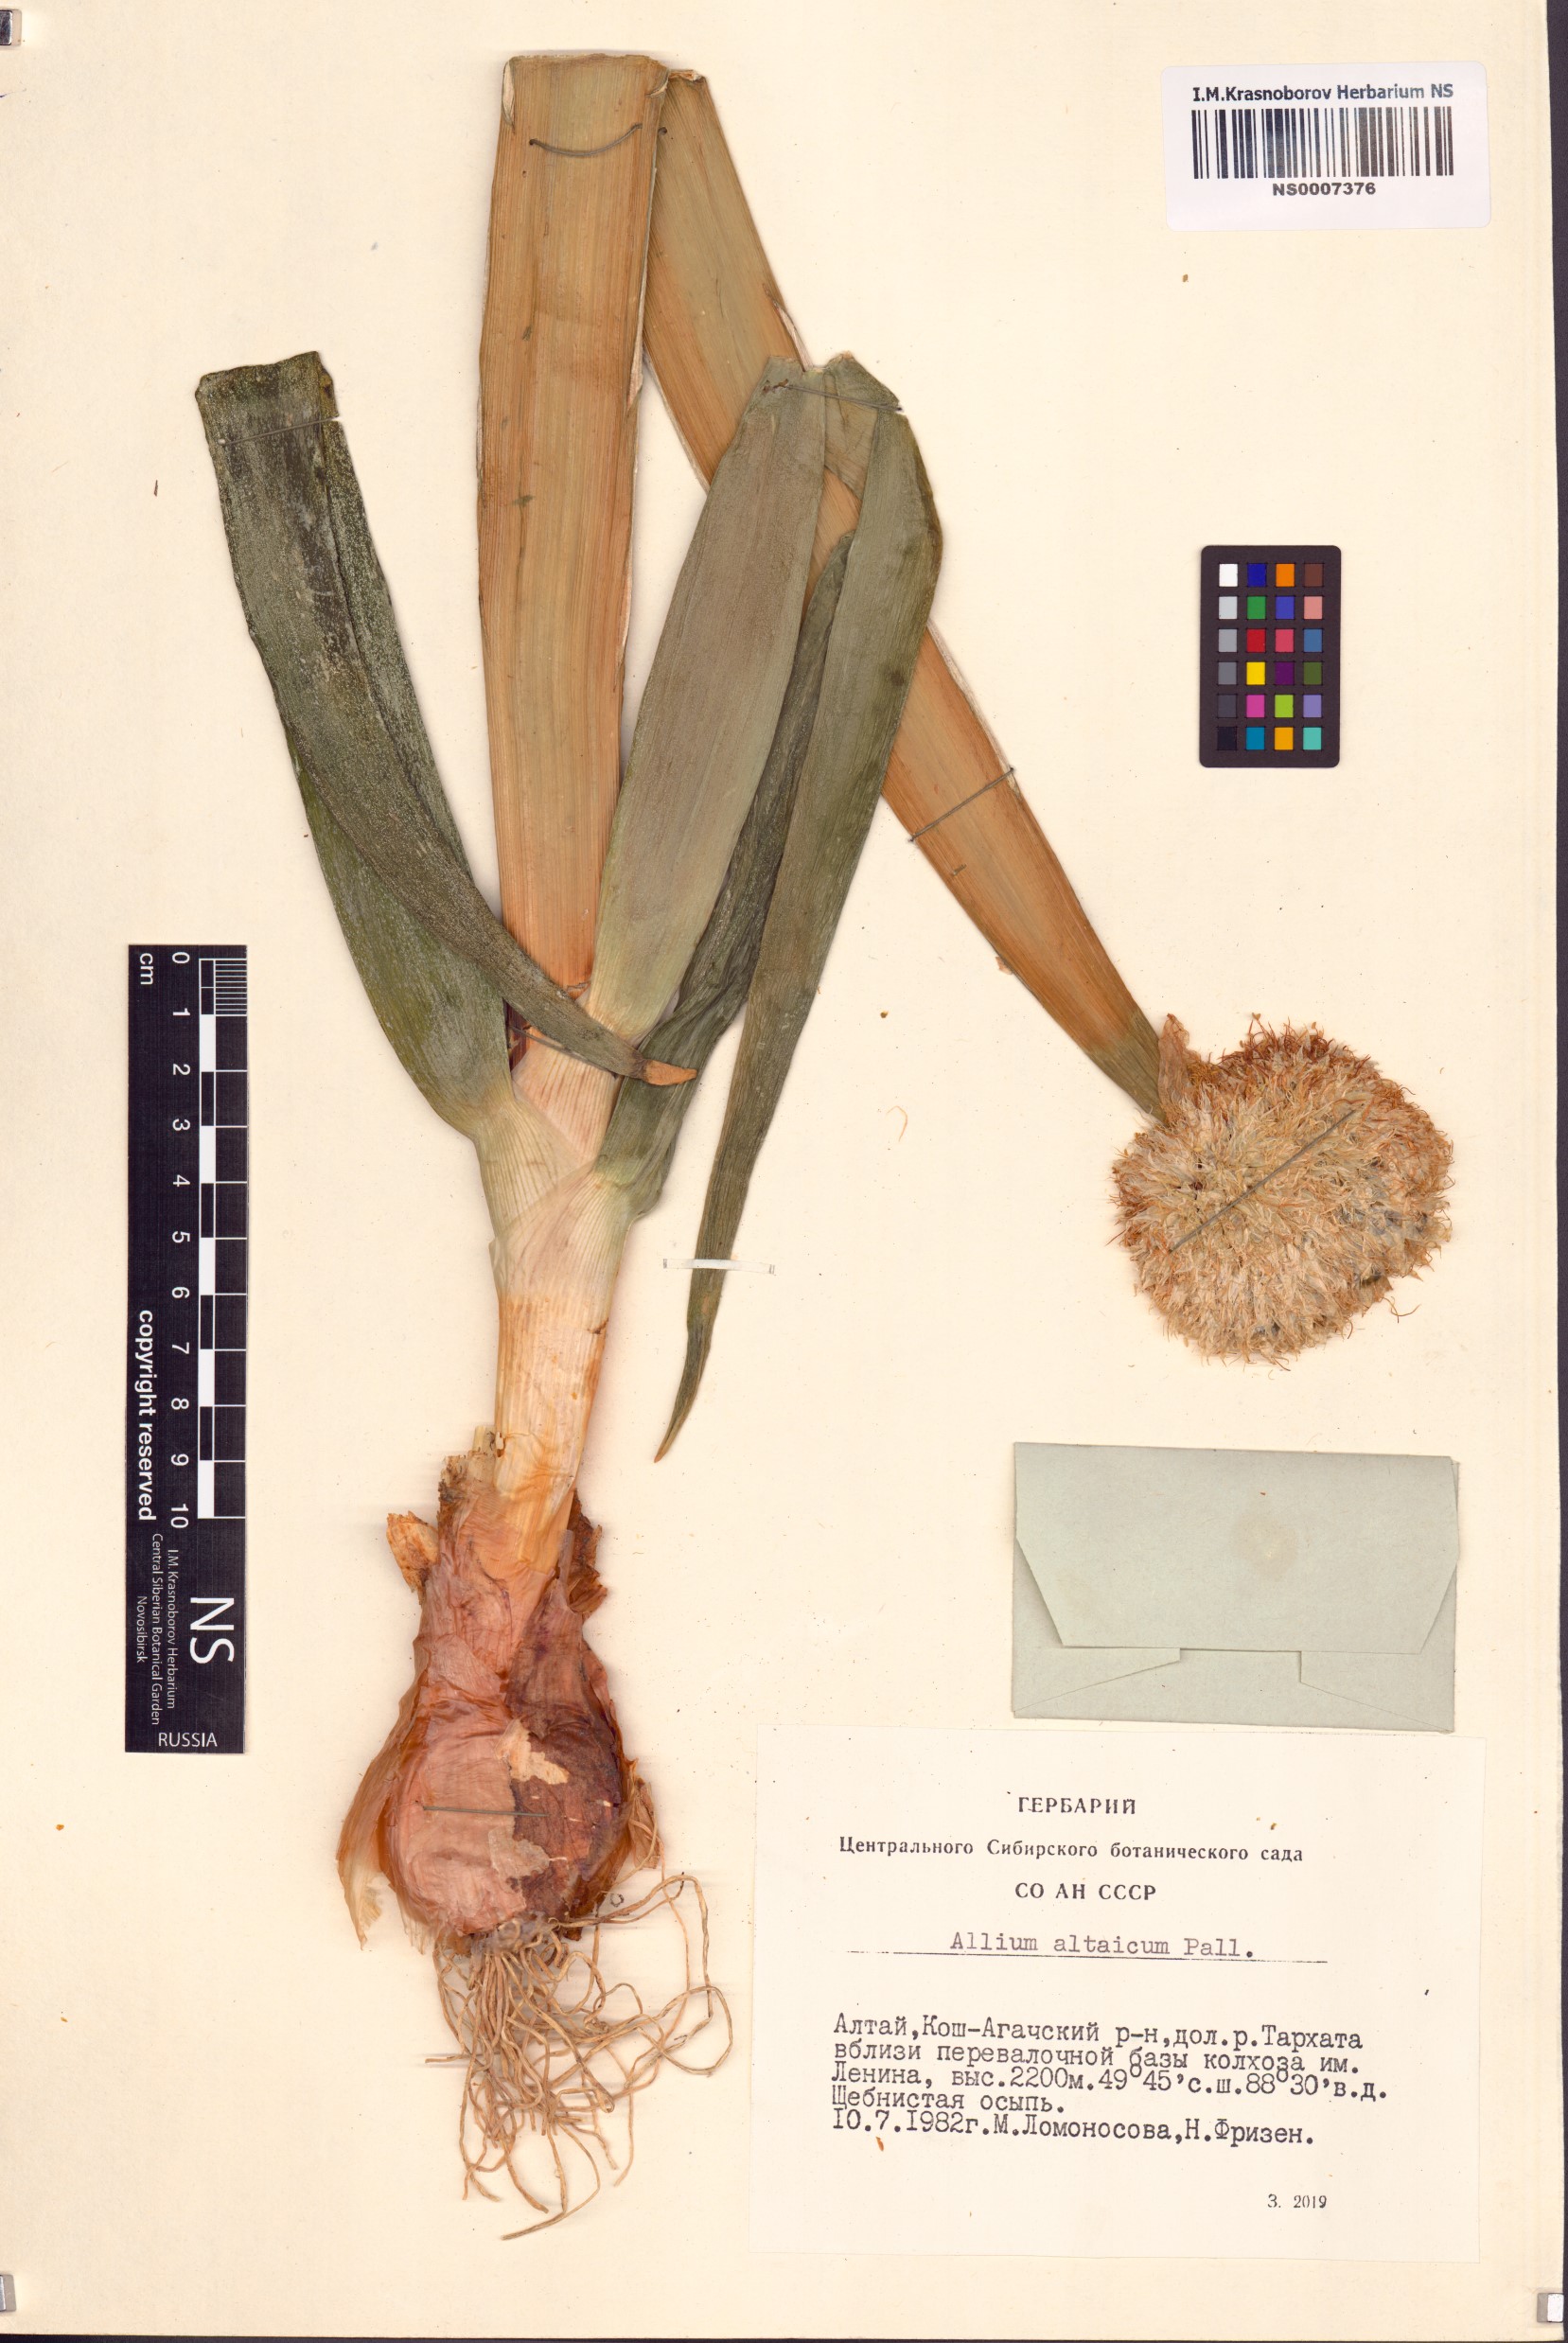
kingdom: Plantae
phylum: Tracheophyta
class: Liliopsida
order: Asparagales
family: Amaryllidaceae
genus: Allium
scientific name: Allium altaicum
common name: Altai onion
